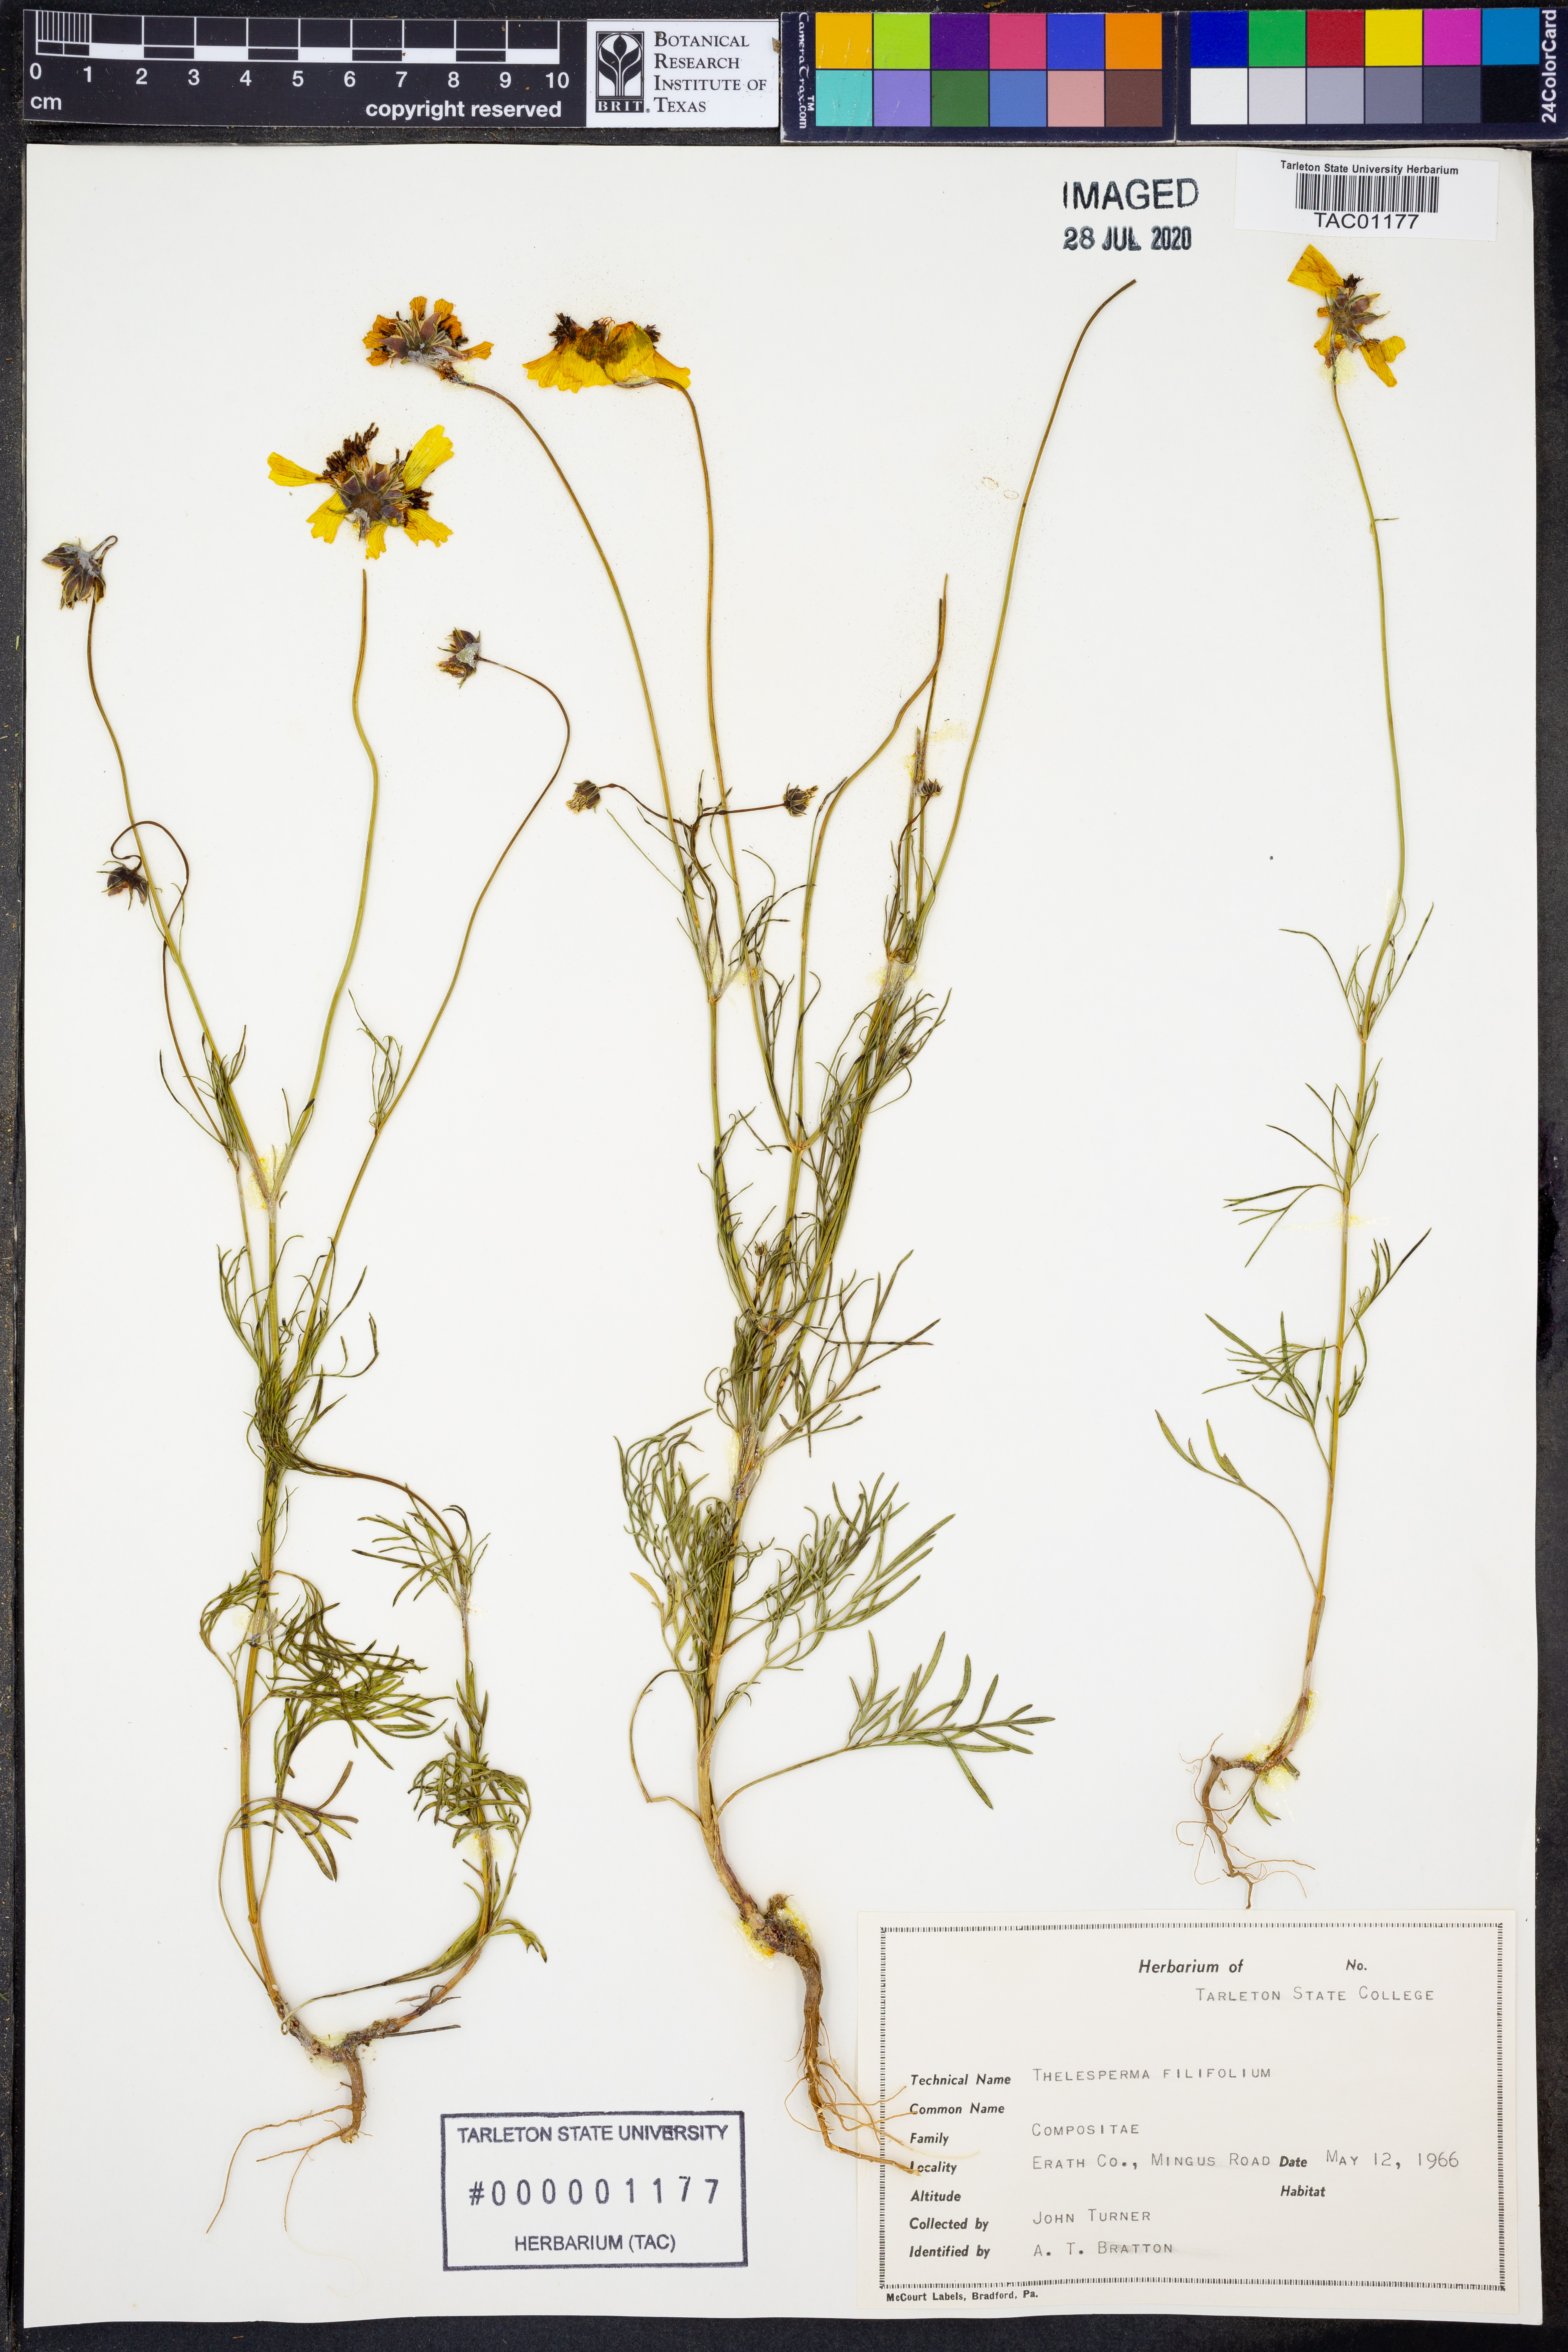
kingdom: Plantae
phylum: Tracheophyta
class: Magnoliopsida
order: Asterales
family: Asteraceae
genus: Thelesperma
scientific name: Thelesperma filifolium
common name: Stiff greenthread
